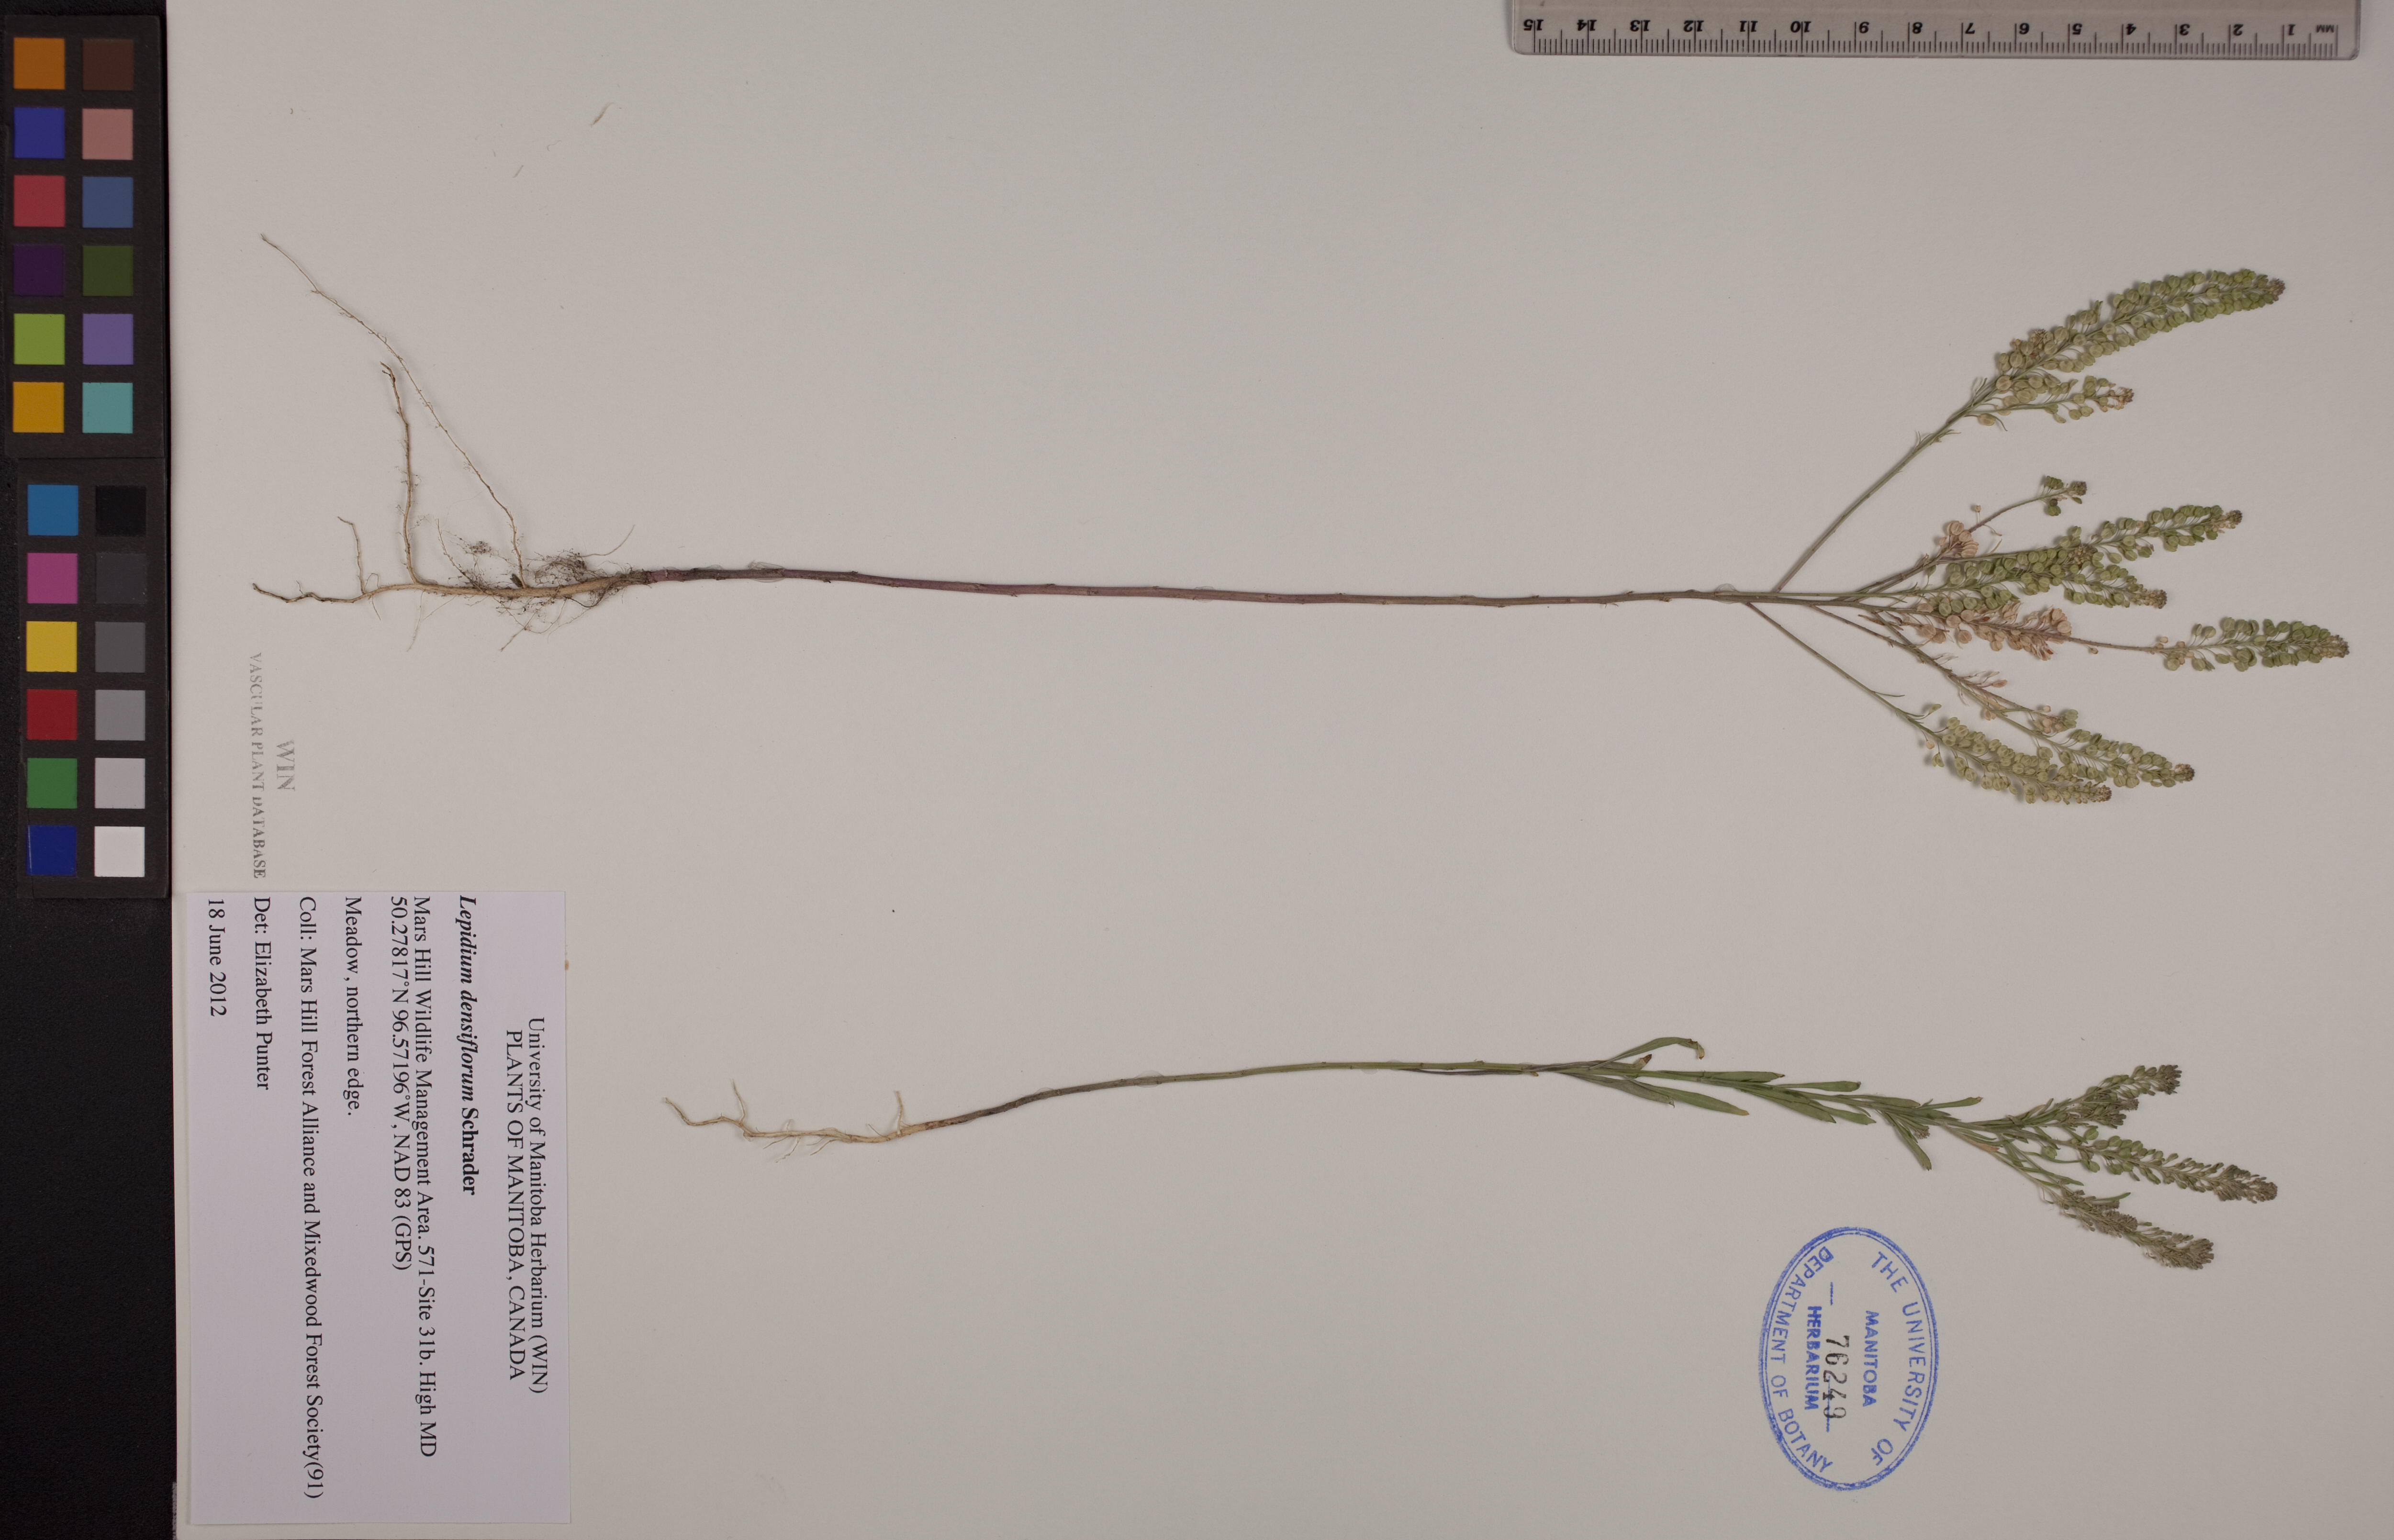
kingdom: Plantae
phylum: Tracheophyta
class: Magnoliopsida
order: Brassicales
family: Brassicaceae
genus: Lepidium
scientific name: Lepidium densiflorum
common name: Miner's pepperwort
